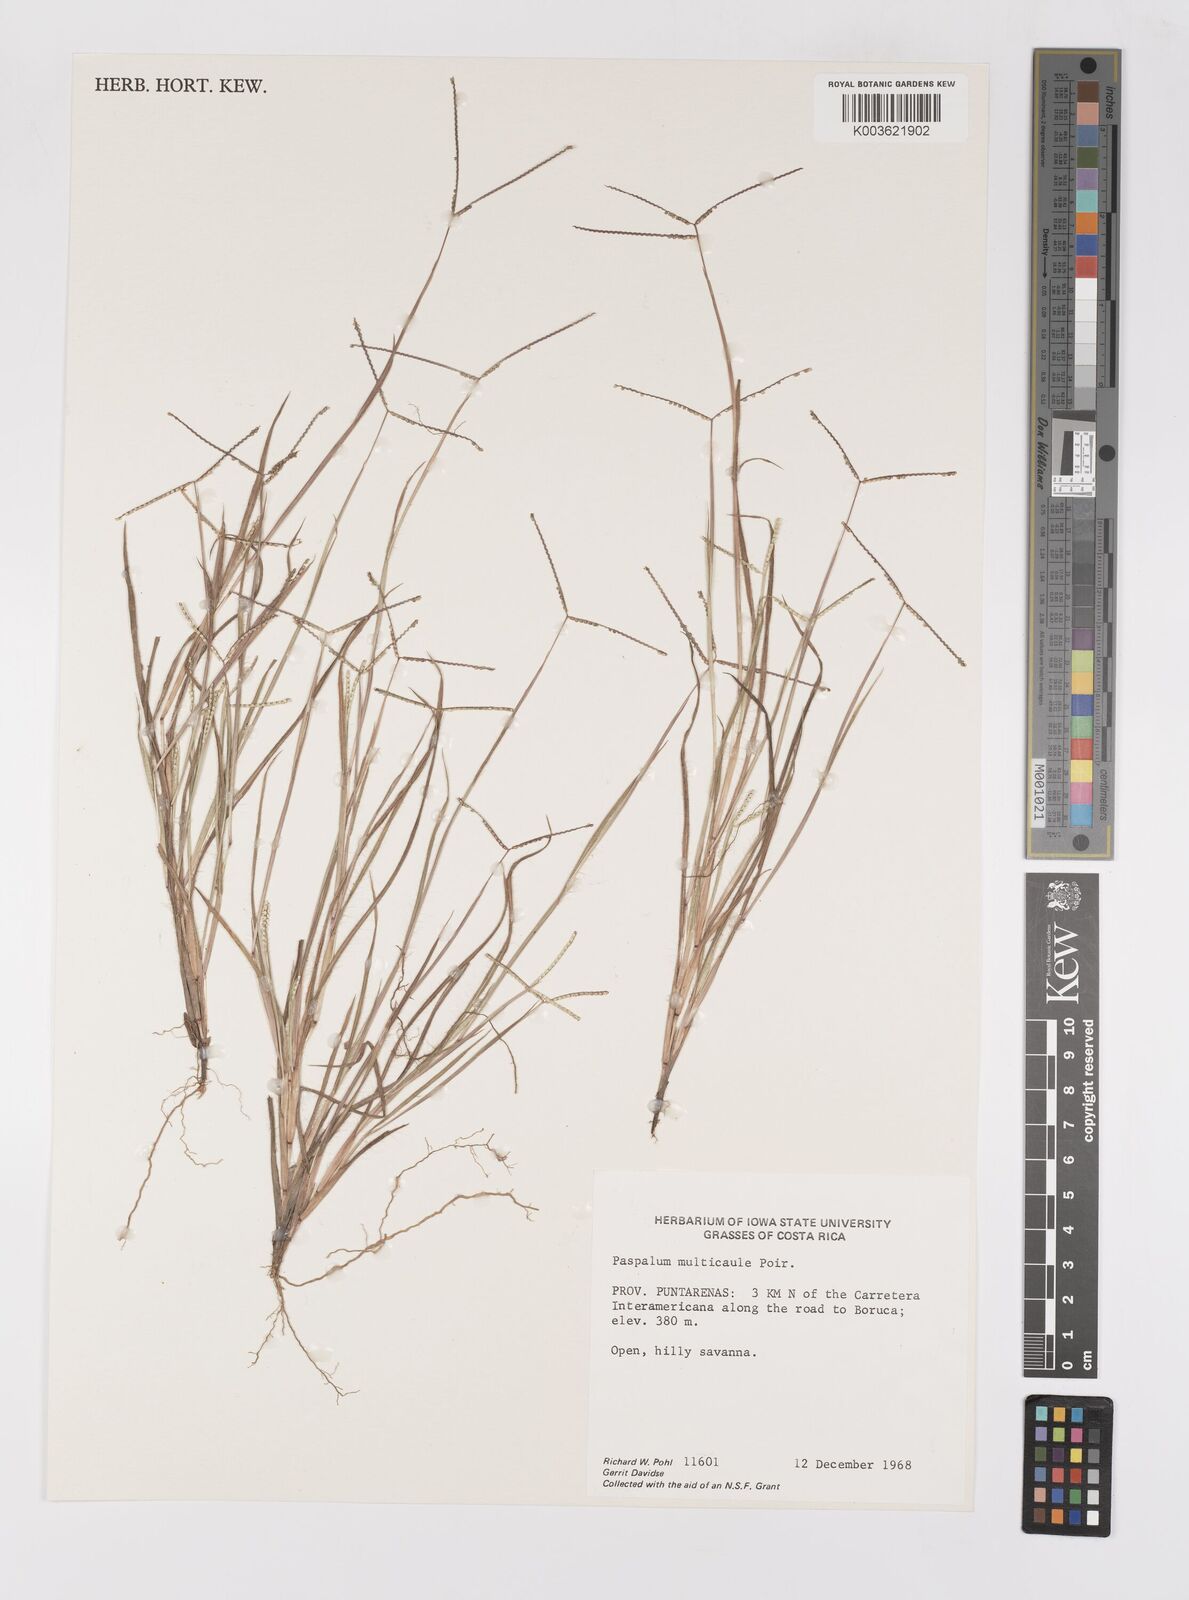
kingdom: Plantae
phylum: Tracheophyta
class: Liliopsida
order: Poales
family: Poaceae
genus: Paspalum
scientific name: Paspalum multicaule
